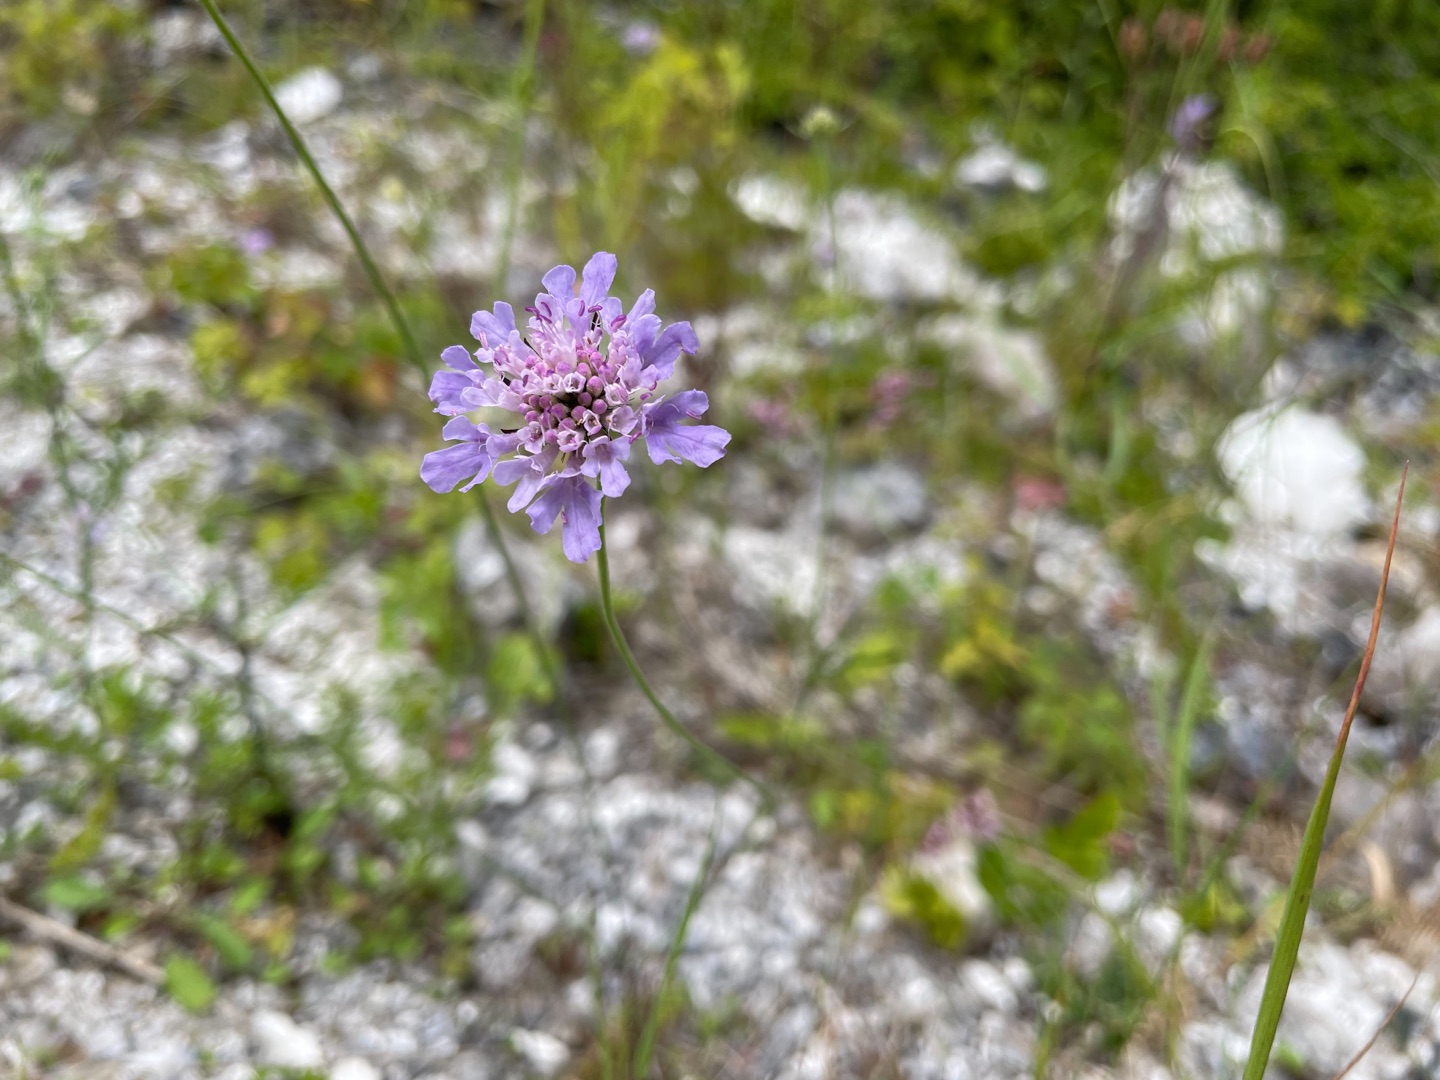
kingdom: Plantae
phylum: Tracheophyta
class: Magnoliopsida
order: Dipsacales
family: Caprifoliaceae
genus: Scabiosa
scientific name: Scabiosa columbaria
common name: Due-skabiose
